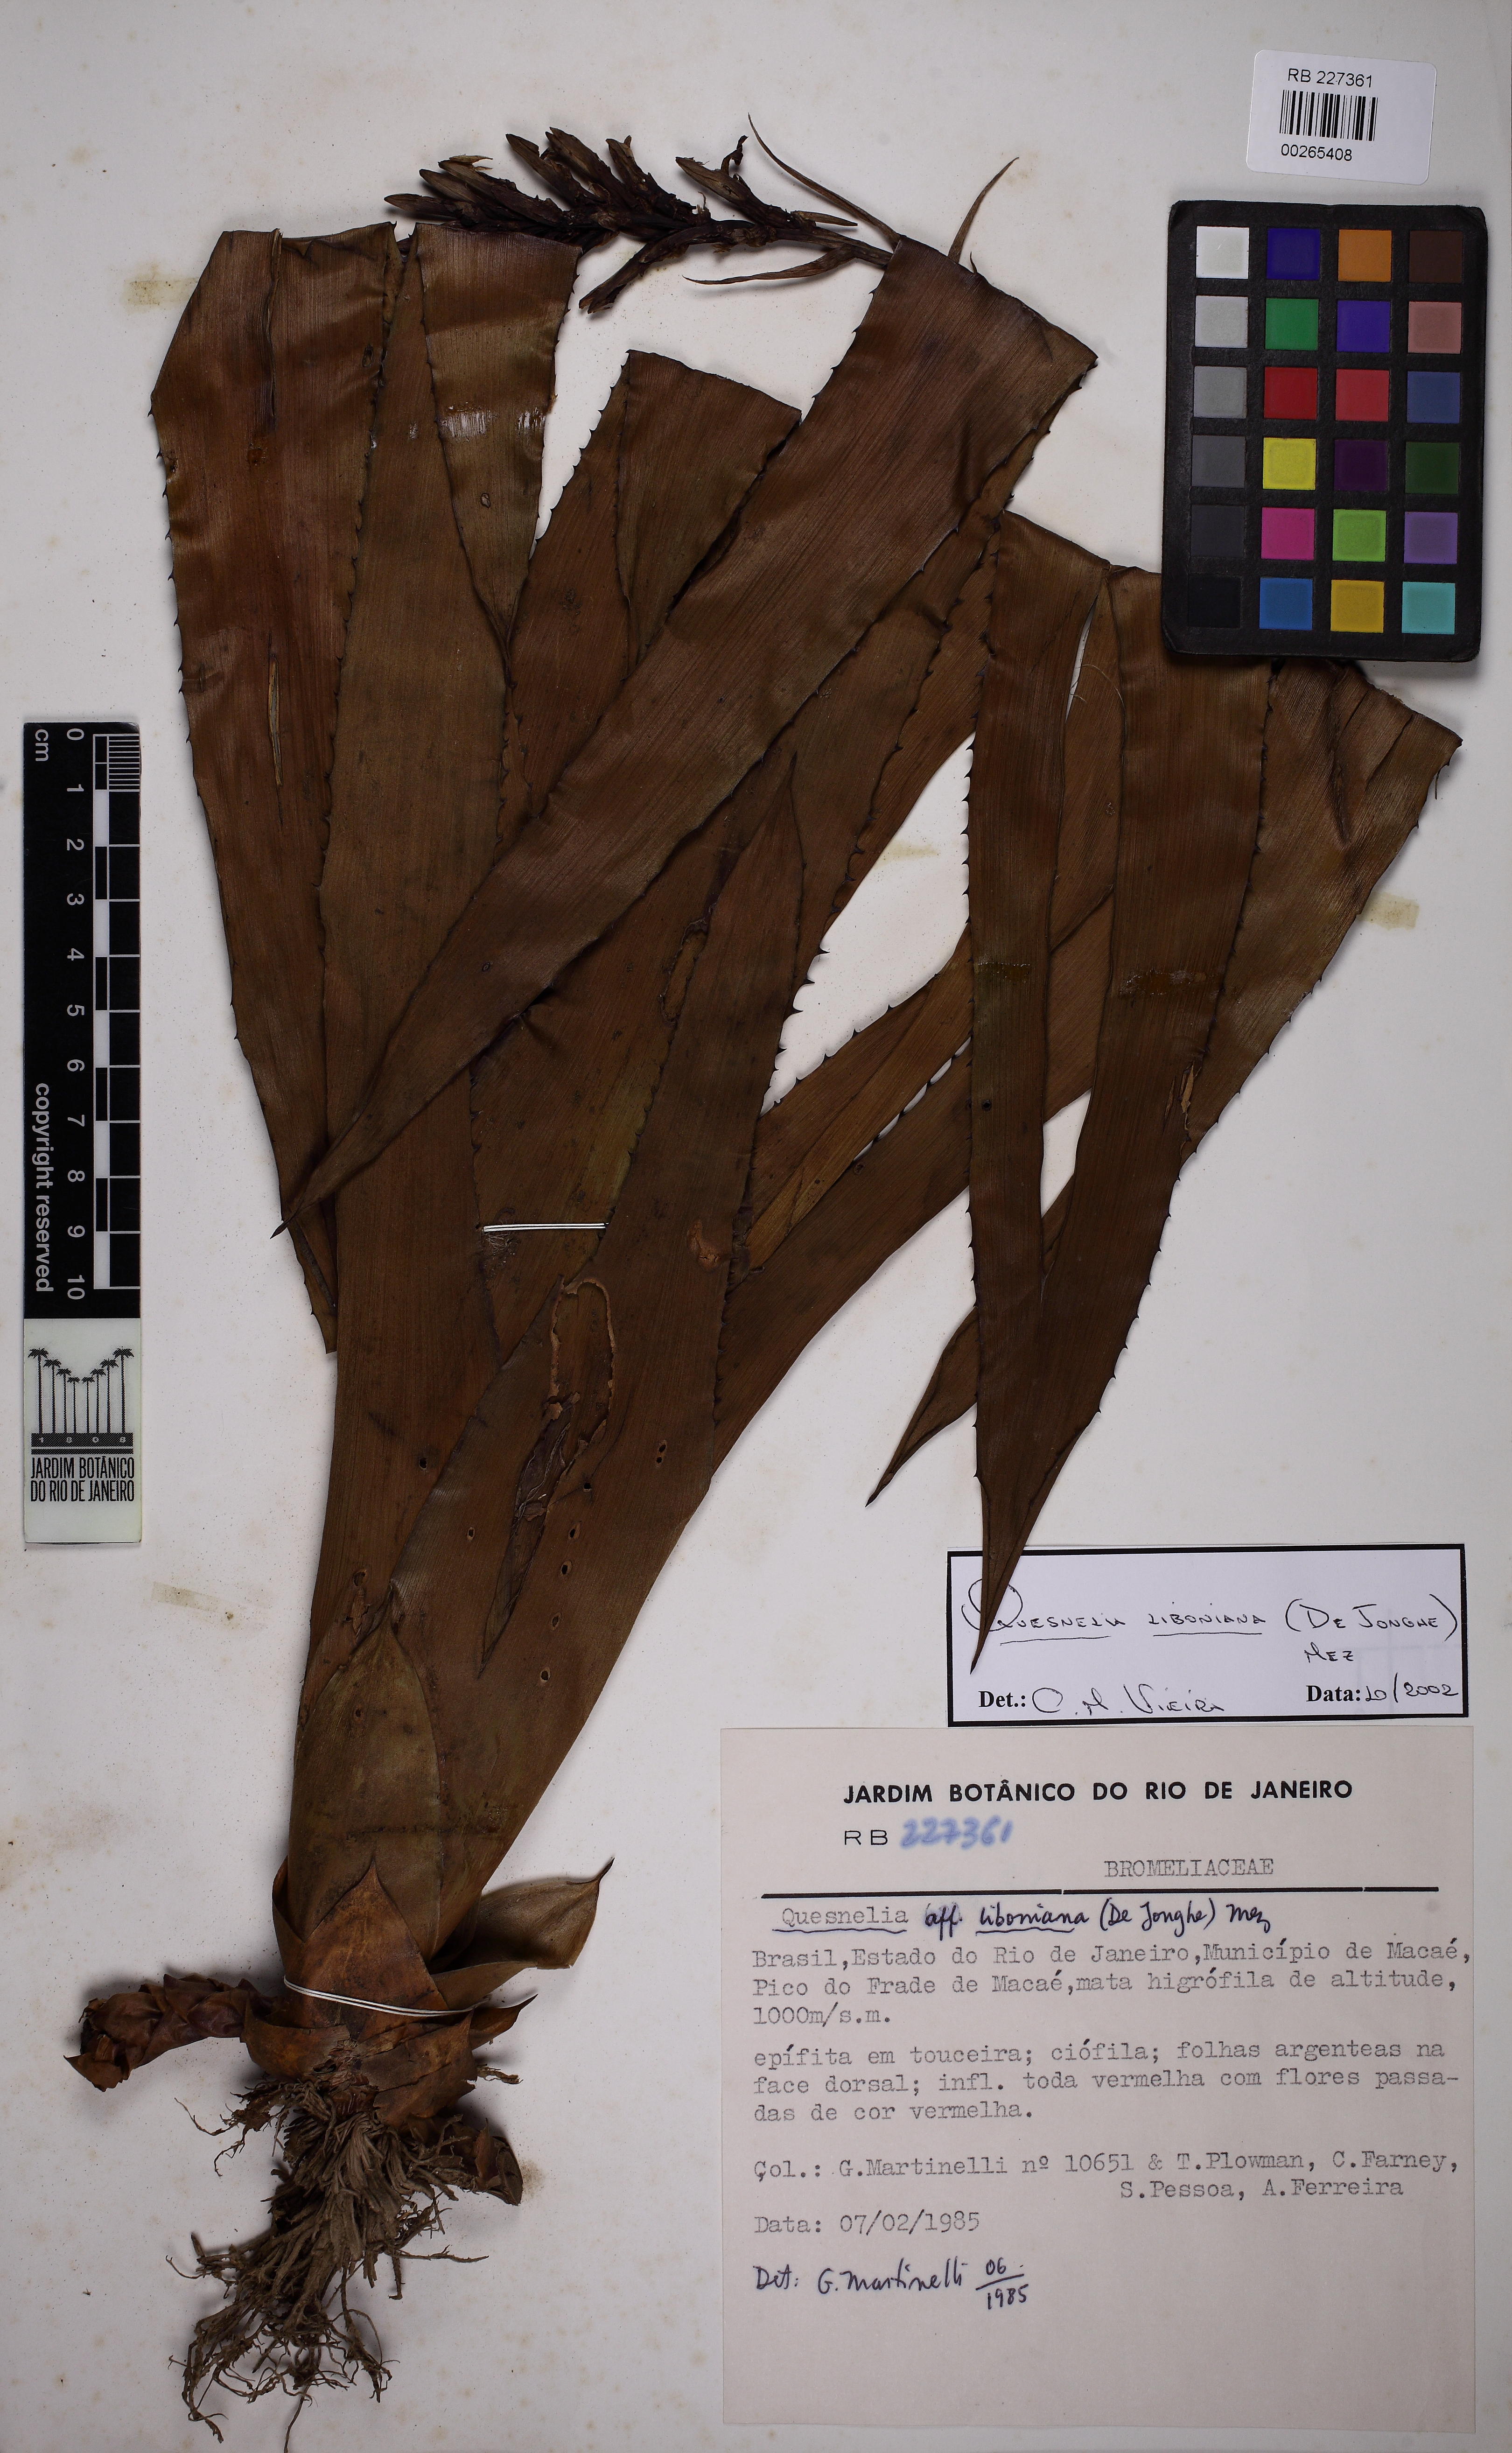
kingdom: Plantae
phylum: Tracheophyta
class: Liliopsida
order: Poales
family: Bromeliaceae
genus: Quesnelia
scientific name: Quesnelia liboniana
